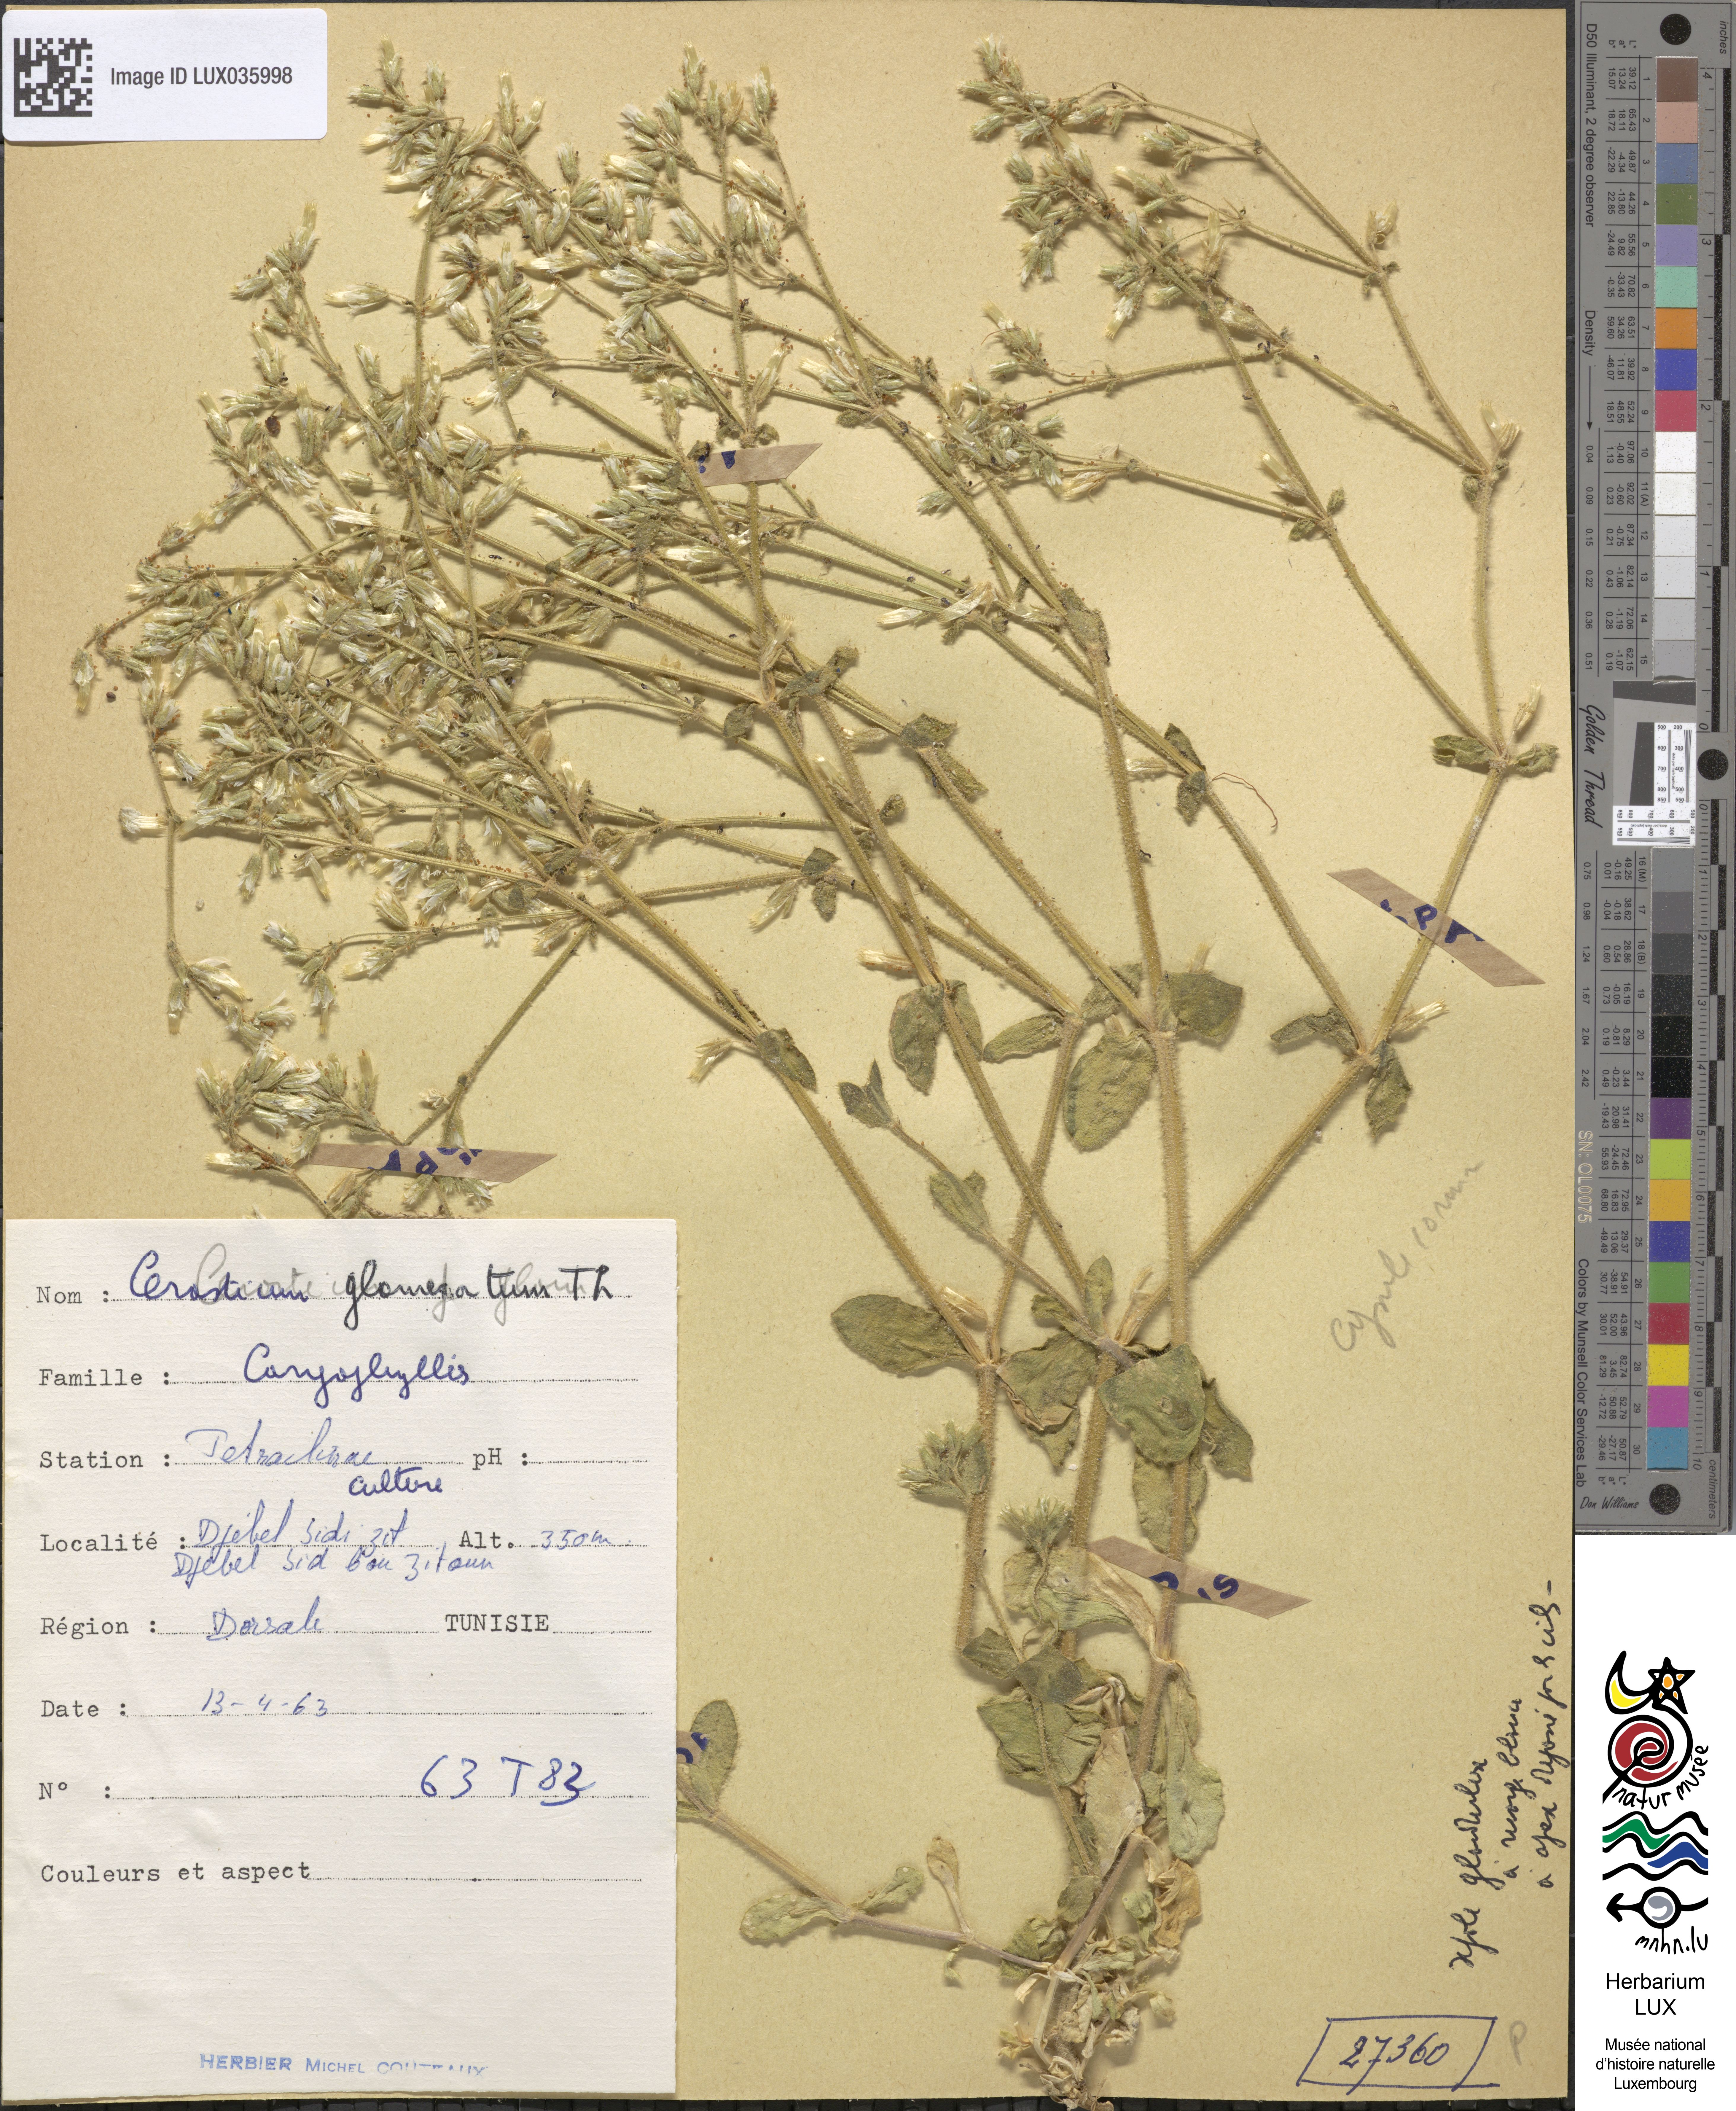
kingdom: Plantae
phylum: Tracheophyta
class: Magnoliopsida
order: Caryophyllales
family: Caryophyllaceae
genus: Cerastium
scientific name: Cerastium glomeratum
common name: Sticky chickweed
